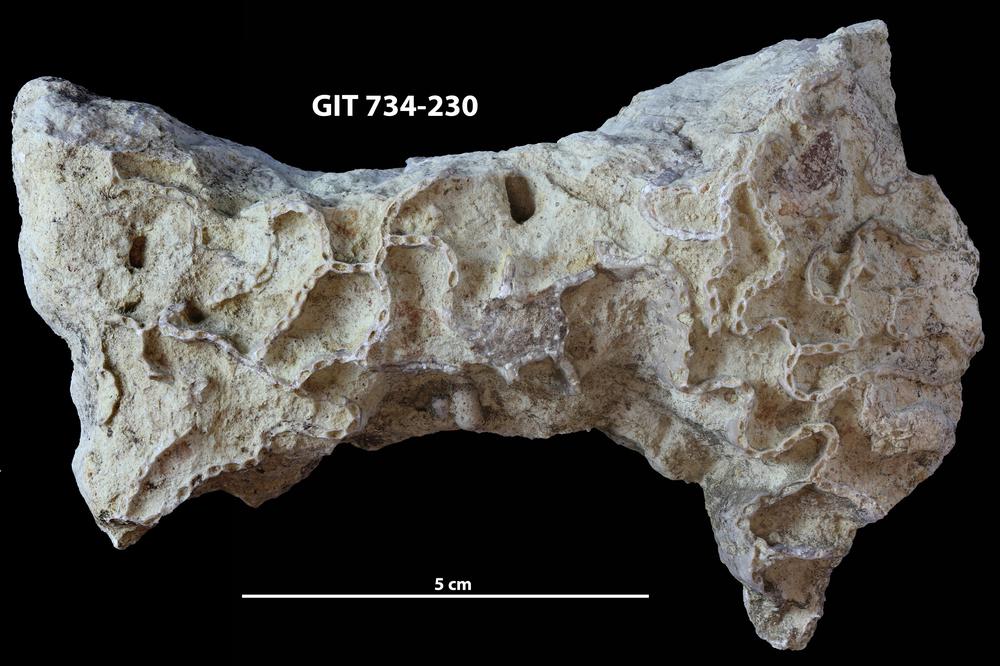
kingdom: Animalia
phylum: Cnidaria
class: Anthozoa
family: Cateniporidae
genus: Catenipora
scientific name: Catenipora
